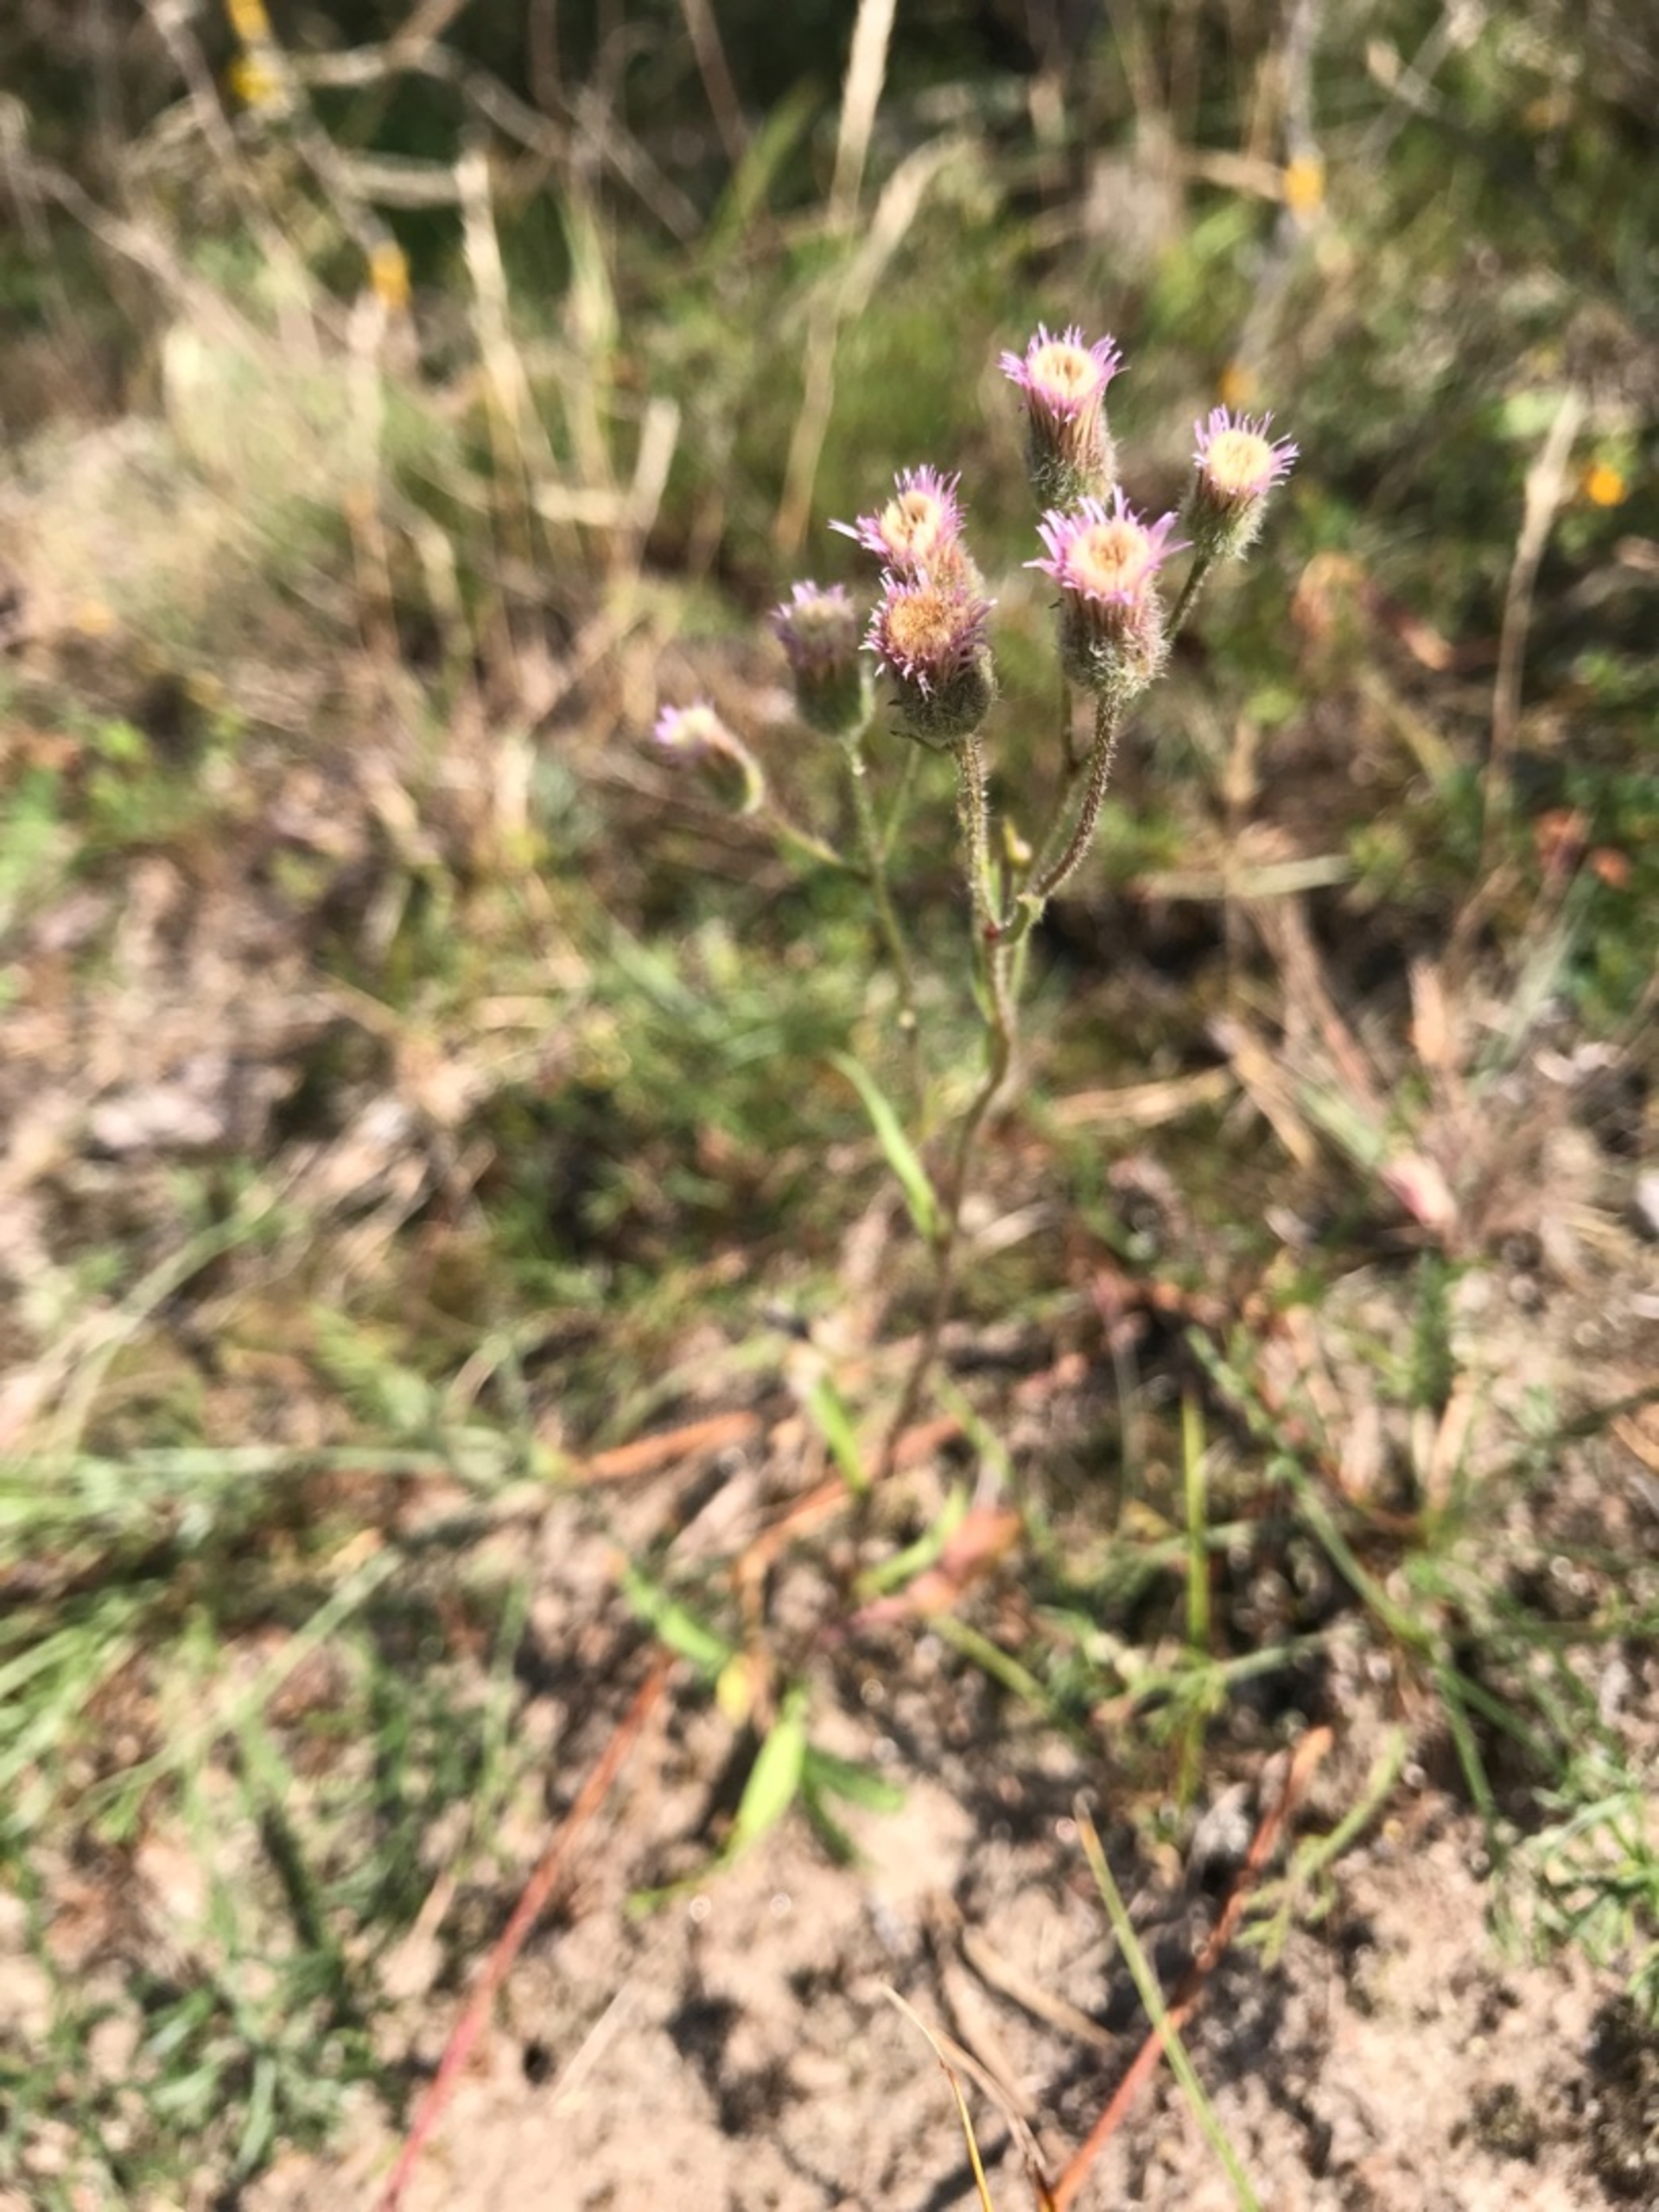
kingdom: Plantae
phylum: Tracheophyta
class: Magnoliopsida
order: Asterales
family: Asteraceae
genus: Erigeron
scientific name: Erigeron acris
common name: Bitter bakkestjerne
